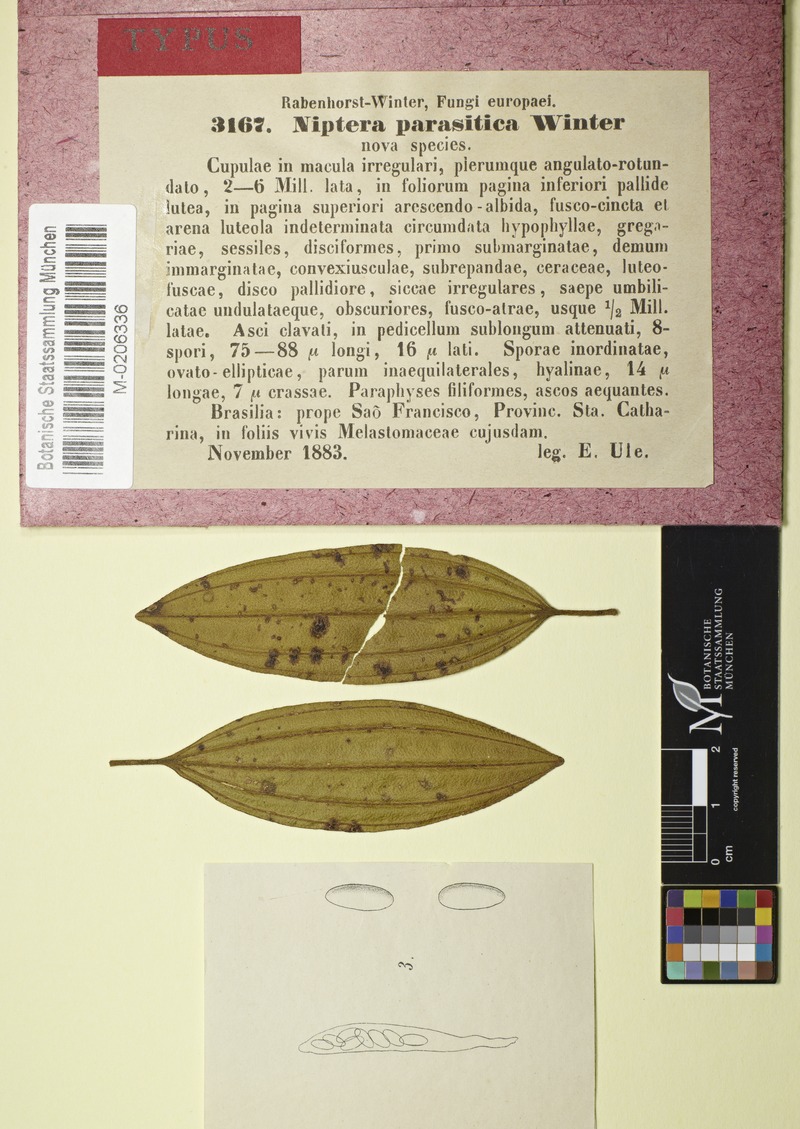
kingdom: Fungi
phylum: Ascomycota
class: Leotiomycetes
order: Helotiales
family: Mollisiaceae
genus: Niptera
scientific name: Niptera parasitica
